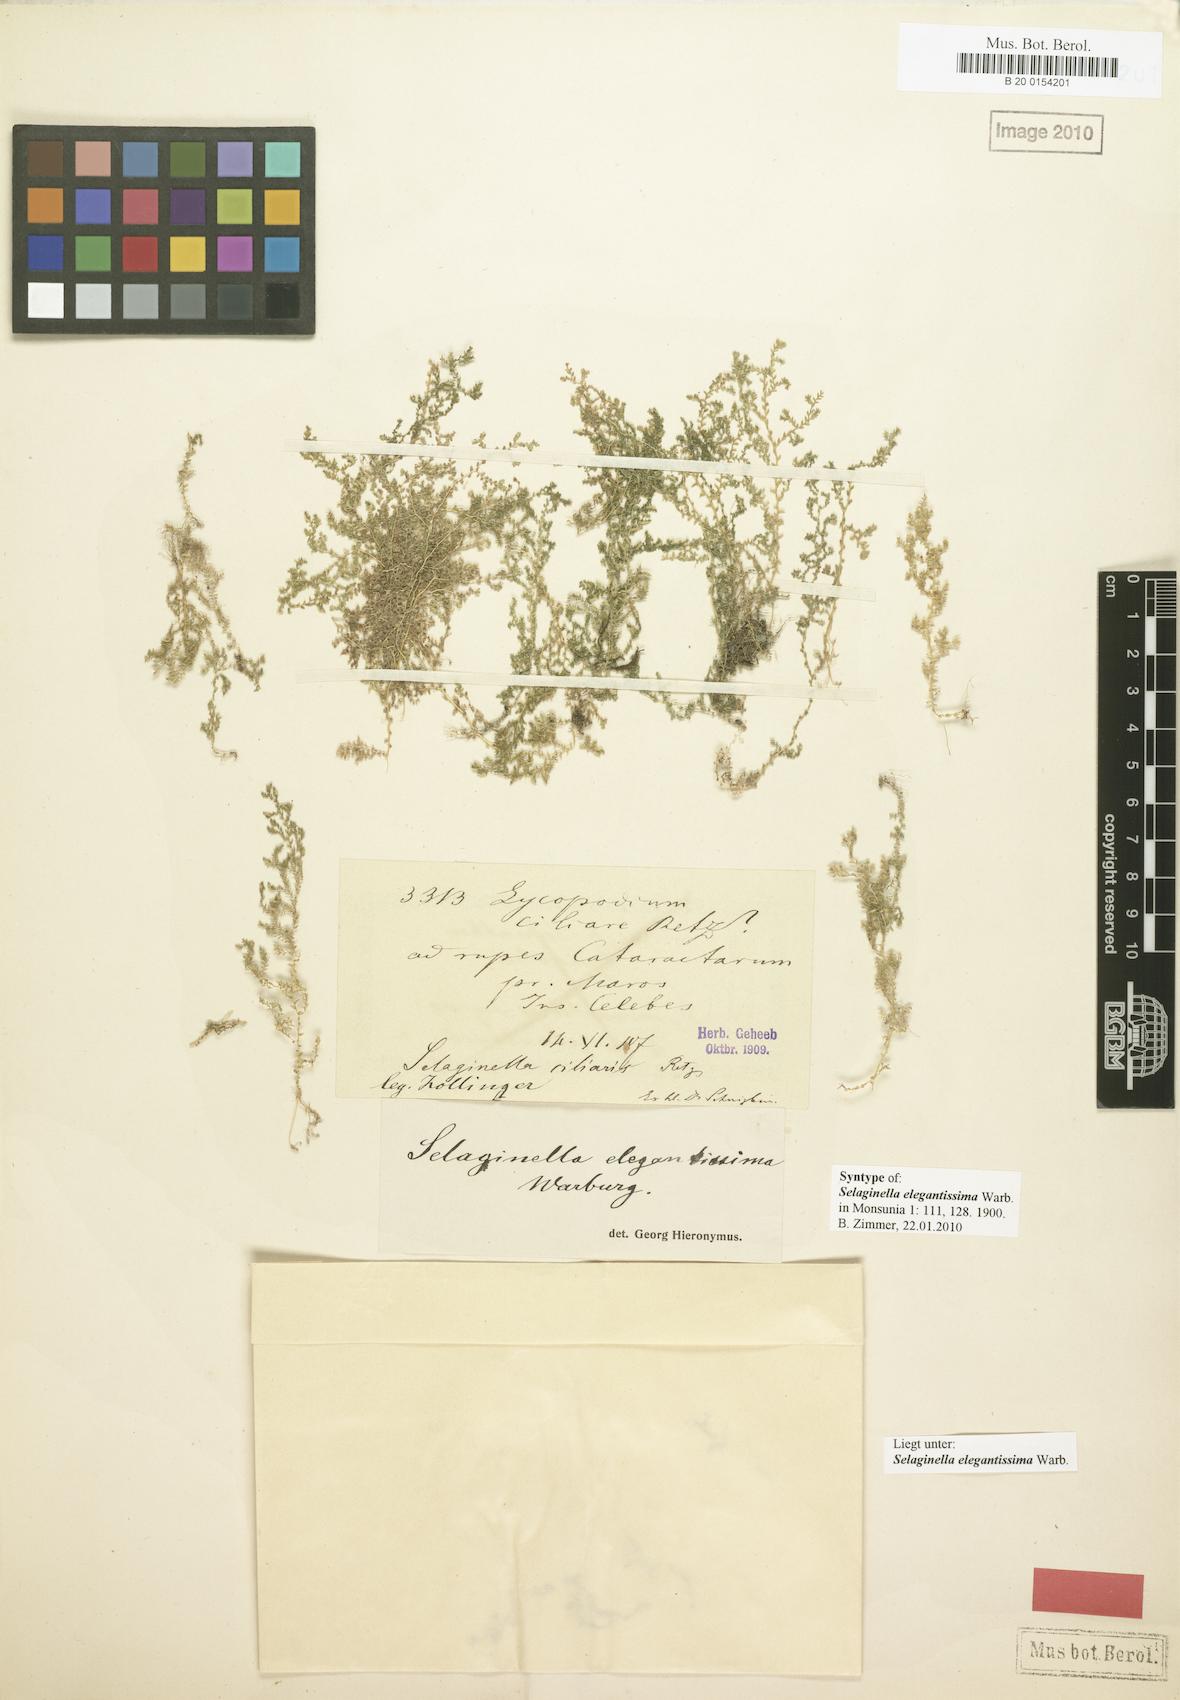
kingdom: Plantae
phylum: Tracheophyta
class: Lycopodiopsida
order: Selaginellales
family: Selaginellaceae
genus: Selaginella
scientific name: Selaginella elegantissima
